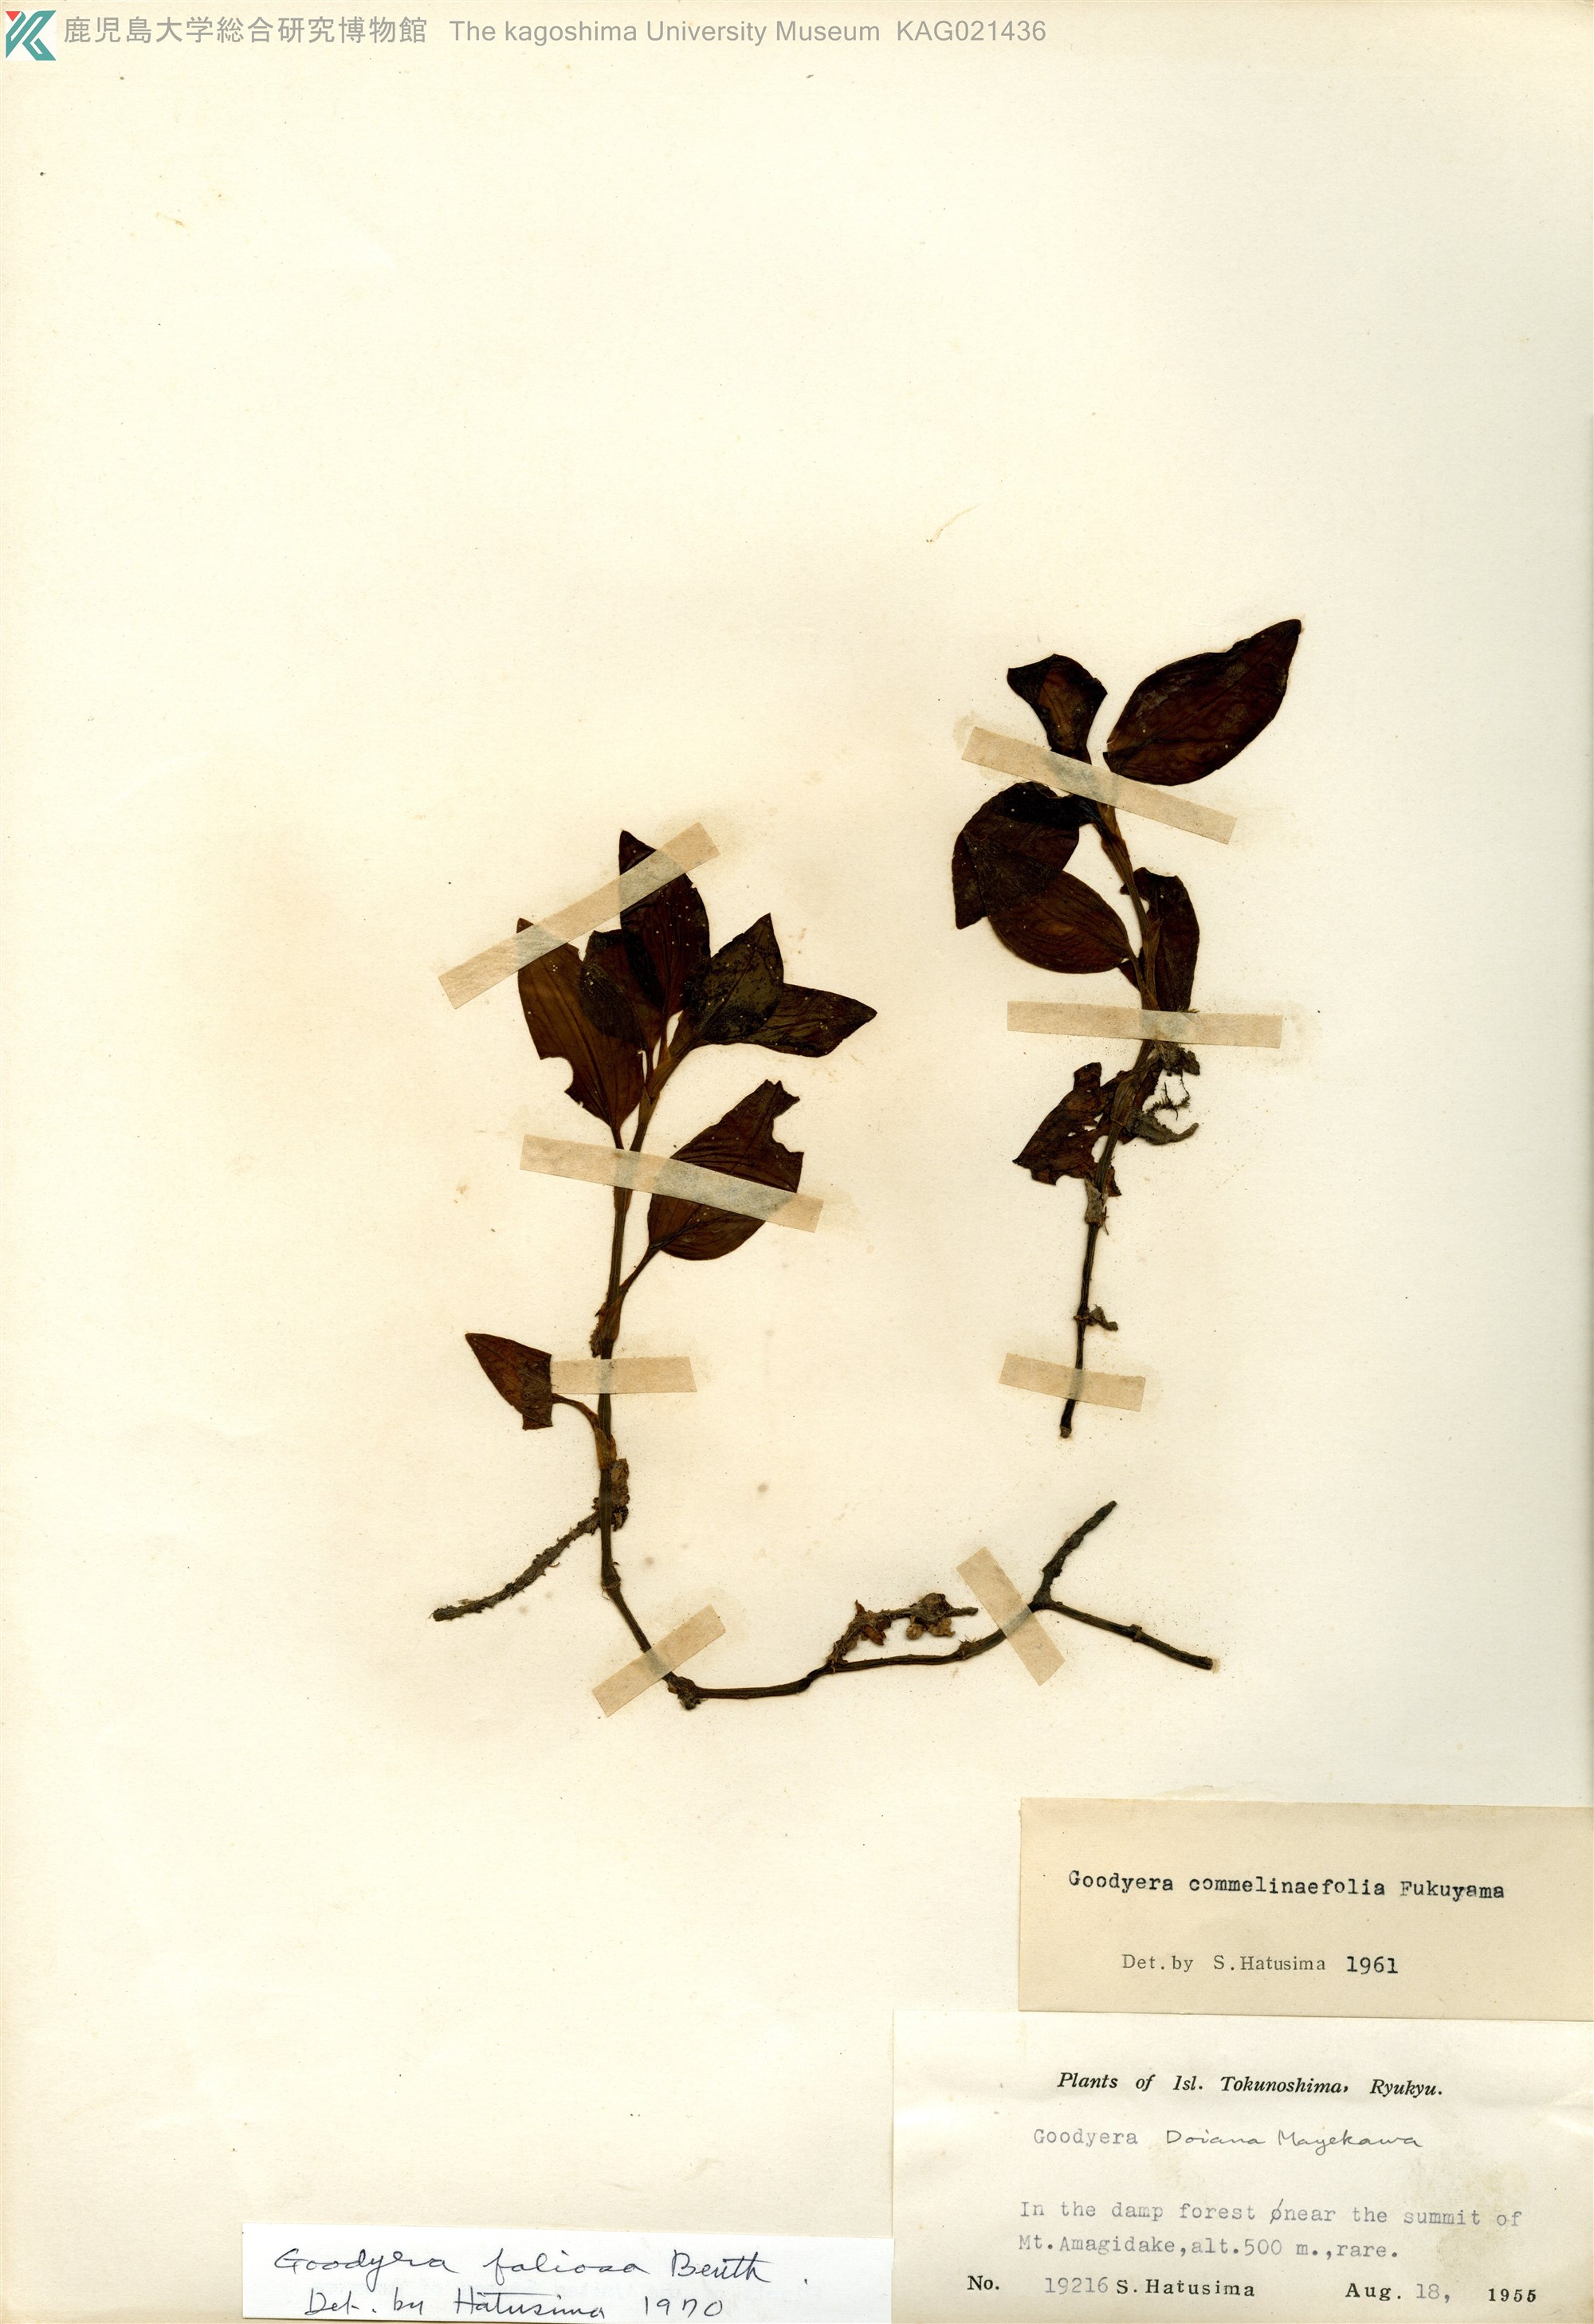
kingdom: Plantae
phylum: Tracheophyta
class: Liliopsida
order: Asparagales
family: Orchidaceae
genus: Goodyera
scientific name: Goodyera foliosa
